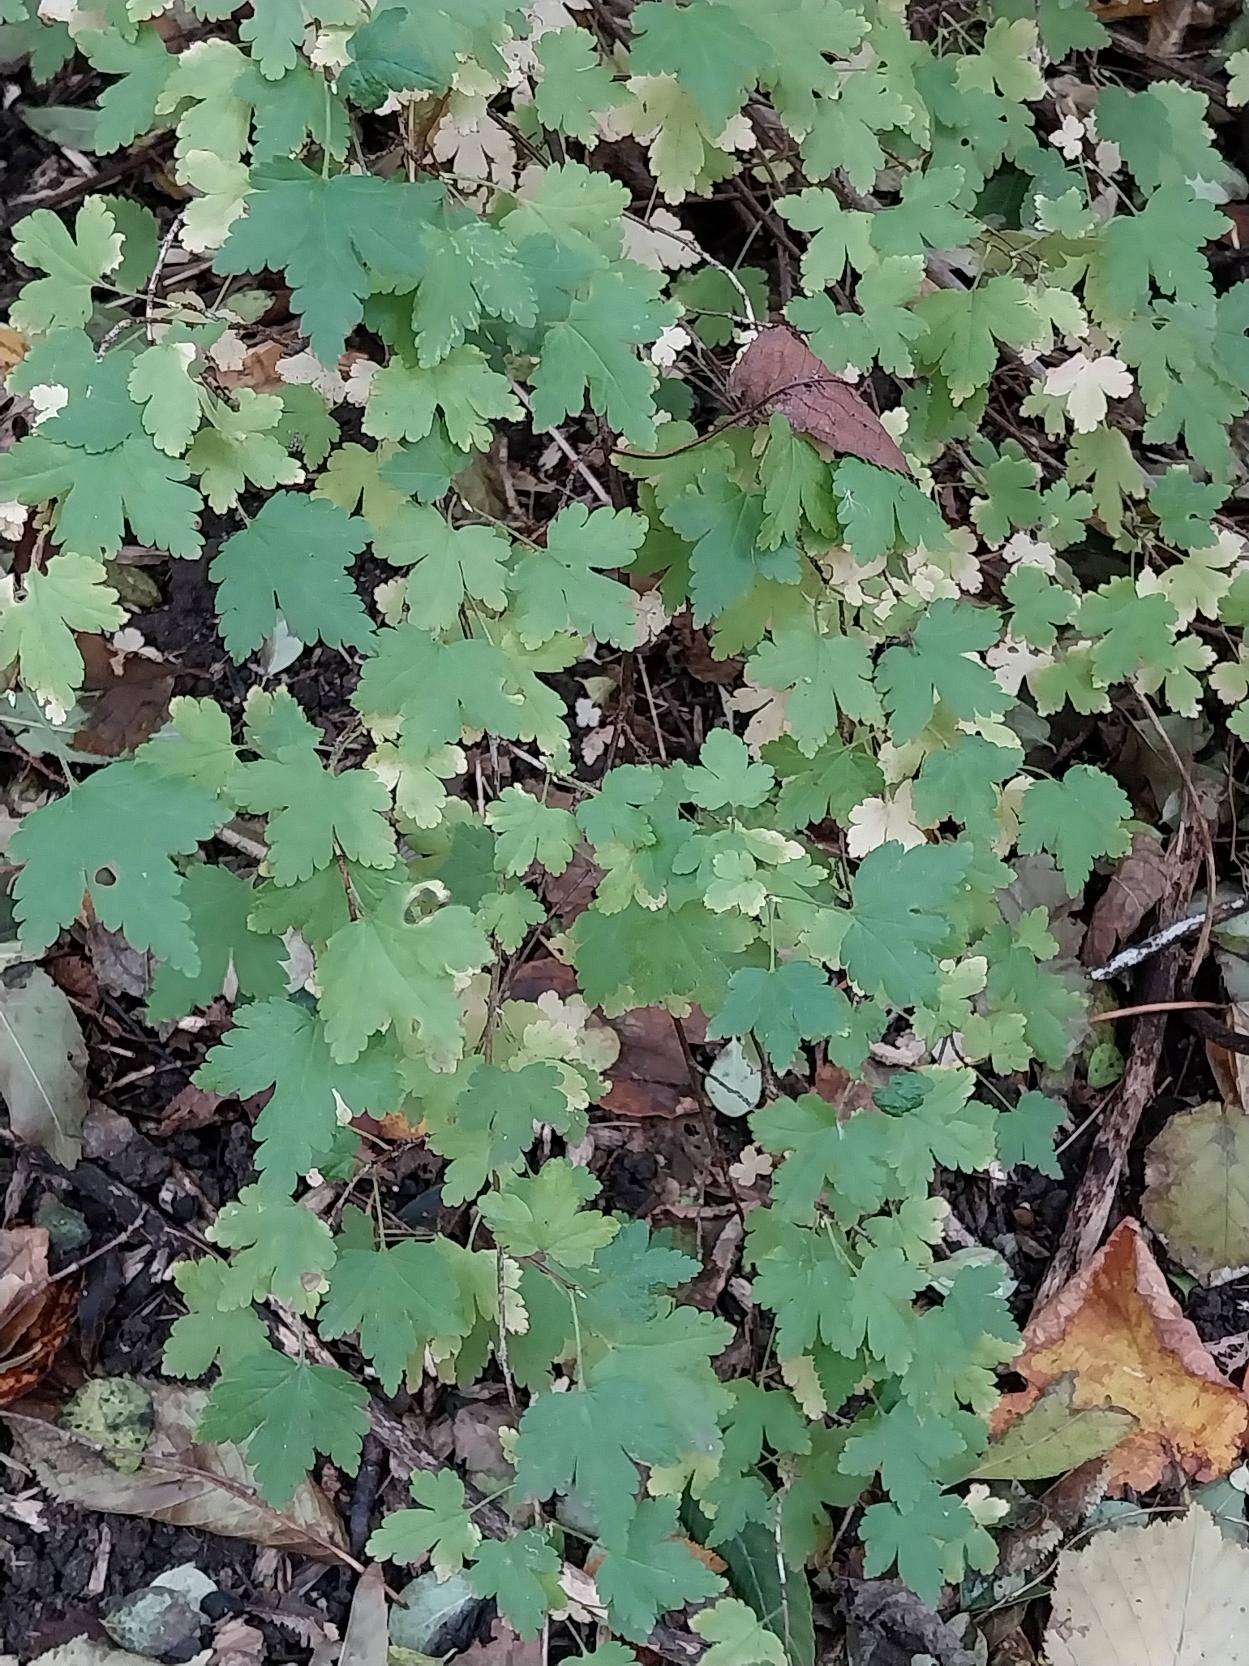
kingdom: Plantae
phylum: Tracheophyta
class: Magnoliopsida
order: Saxifragales
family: Grossulariaceae
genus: Ribes
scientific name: Ribes alpinum
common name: Fjeld-ribs
